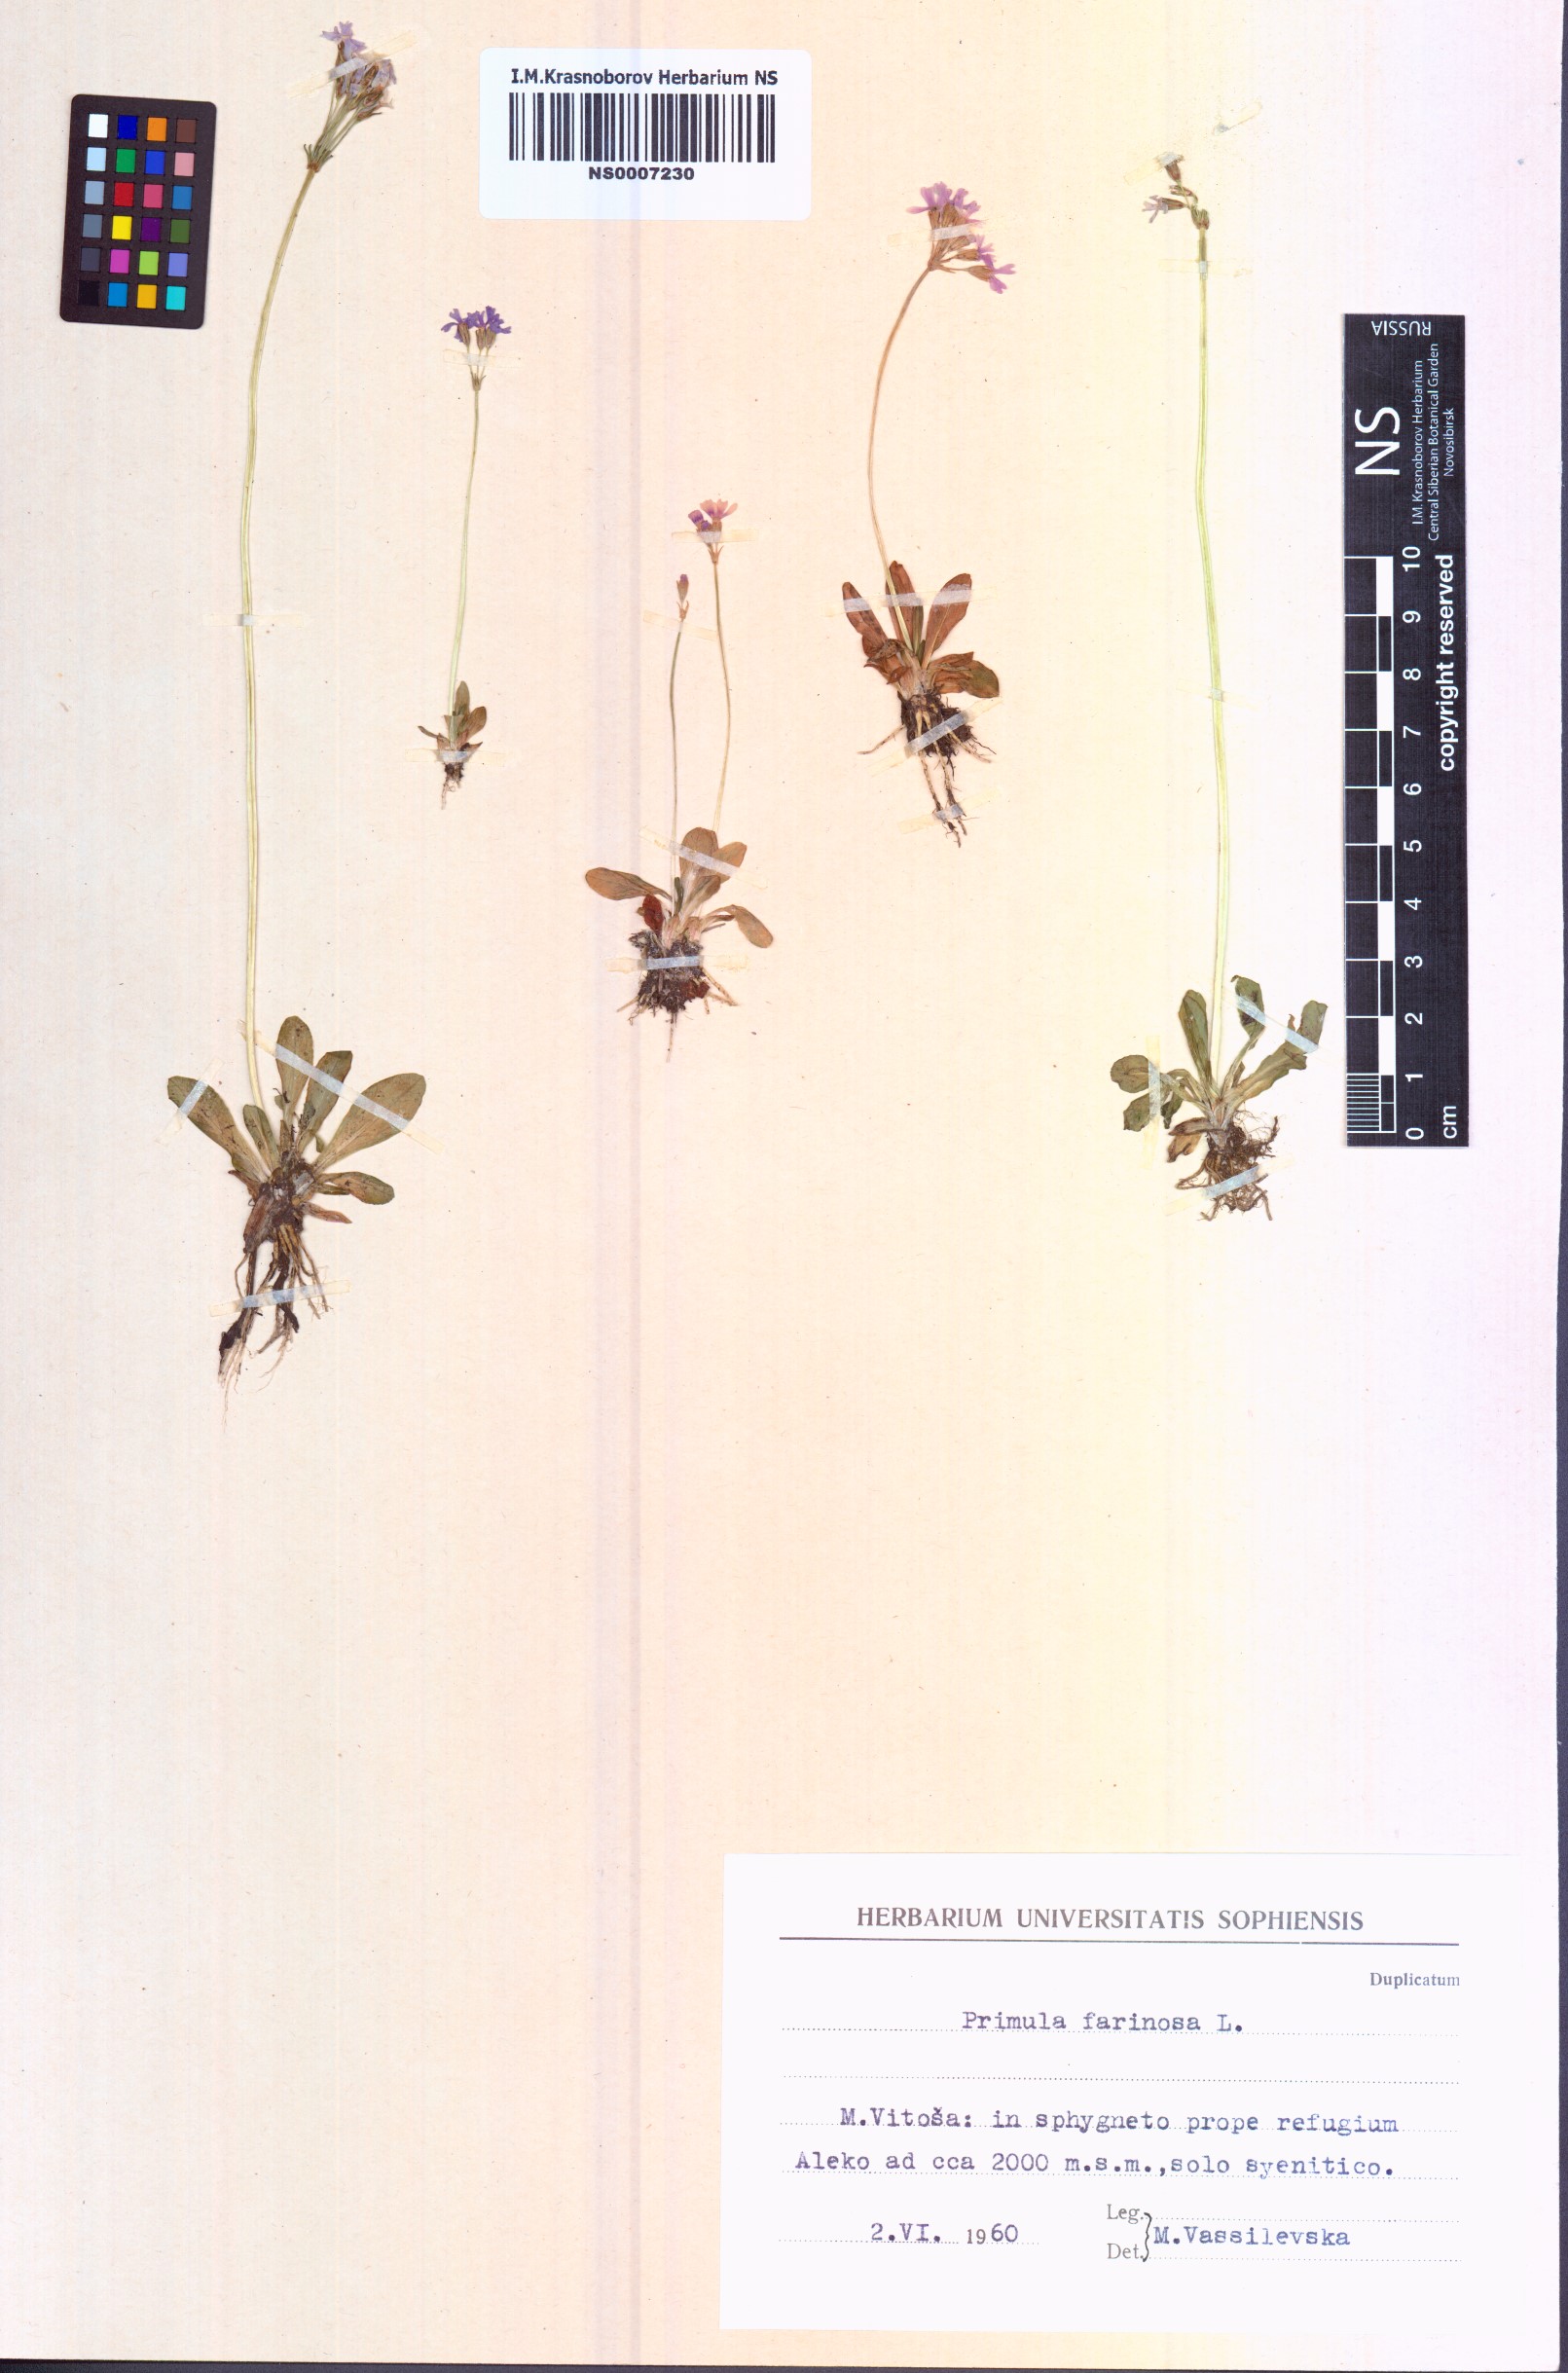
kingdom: Plantae
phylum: Tracheophyta
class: Magnoliopsida
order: Ericales
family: Primulaceae
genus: Primula
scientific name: Primula farinosa
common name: Bird's-eye primrose
